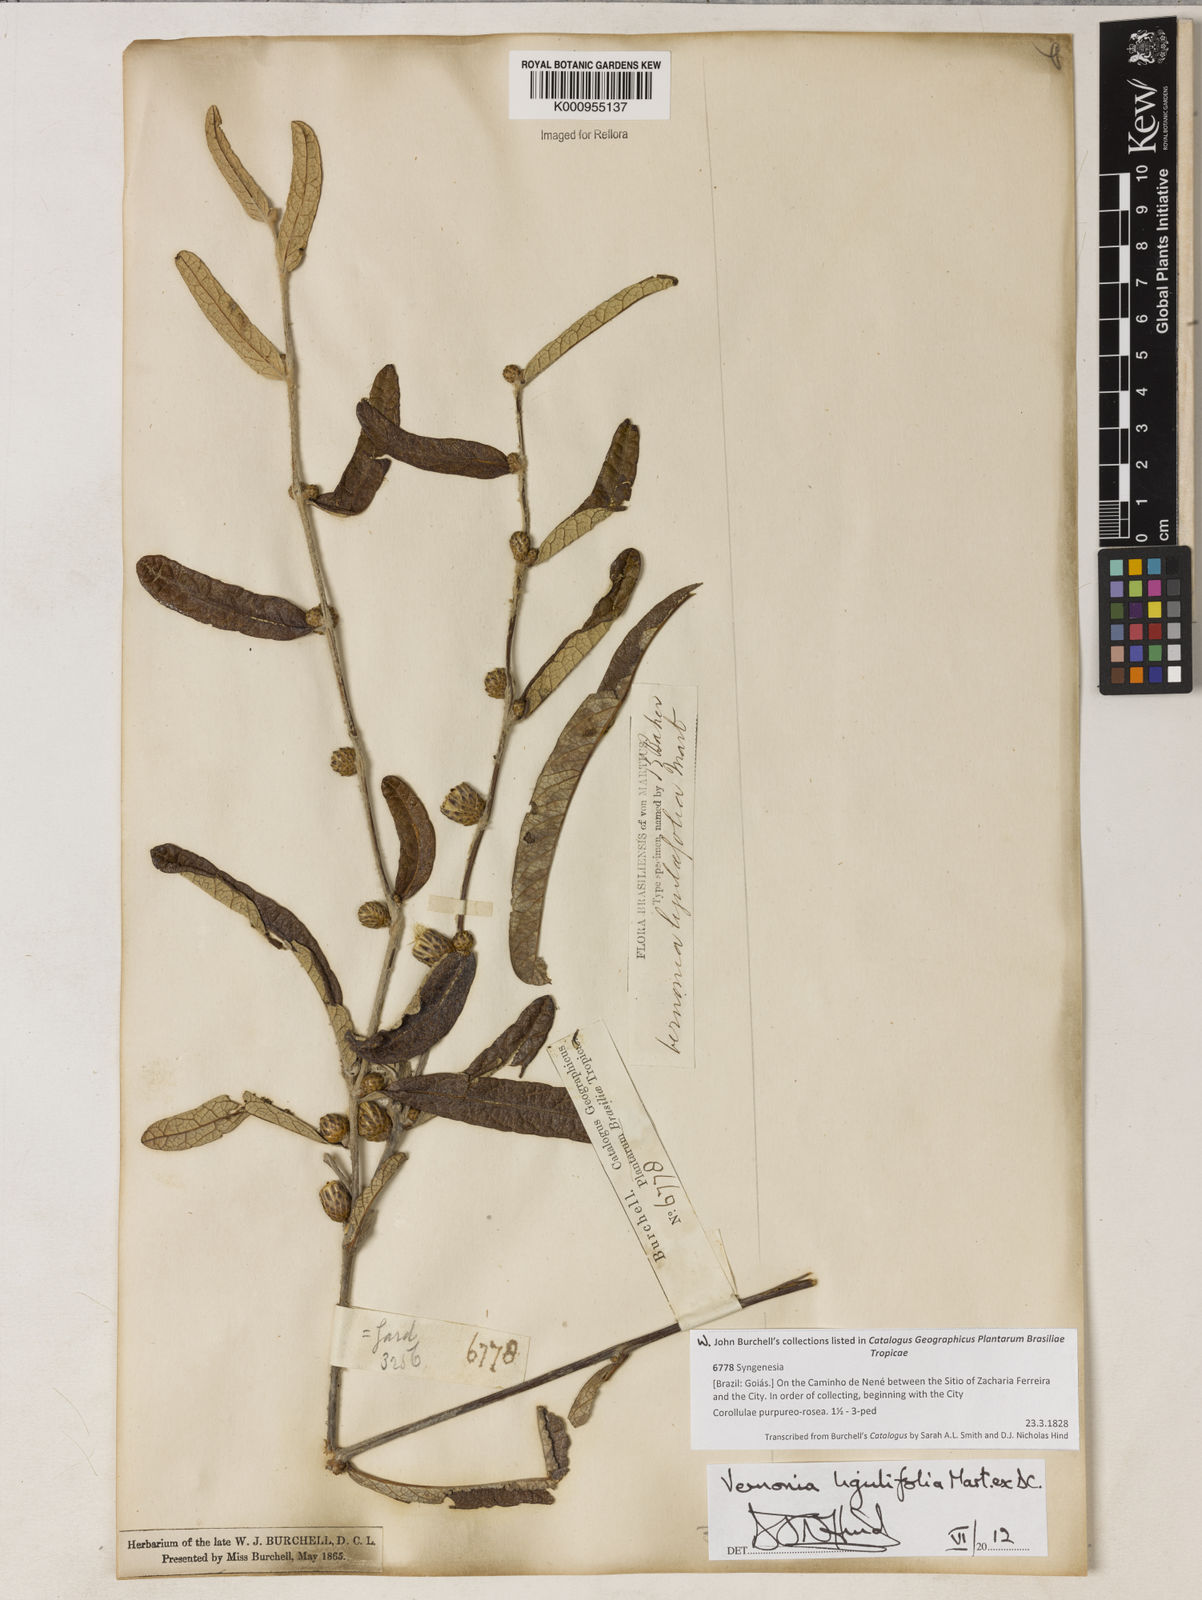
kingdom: Plantae
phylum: Tracheophyta
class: Magnoliopsida
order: Asterales
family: Asteraceae
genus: Lessingianthus
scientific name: Lessingianthus ligulifolius
